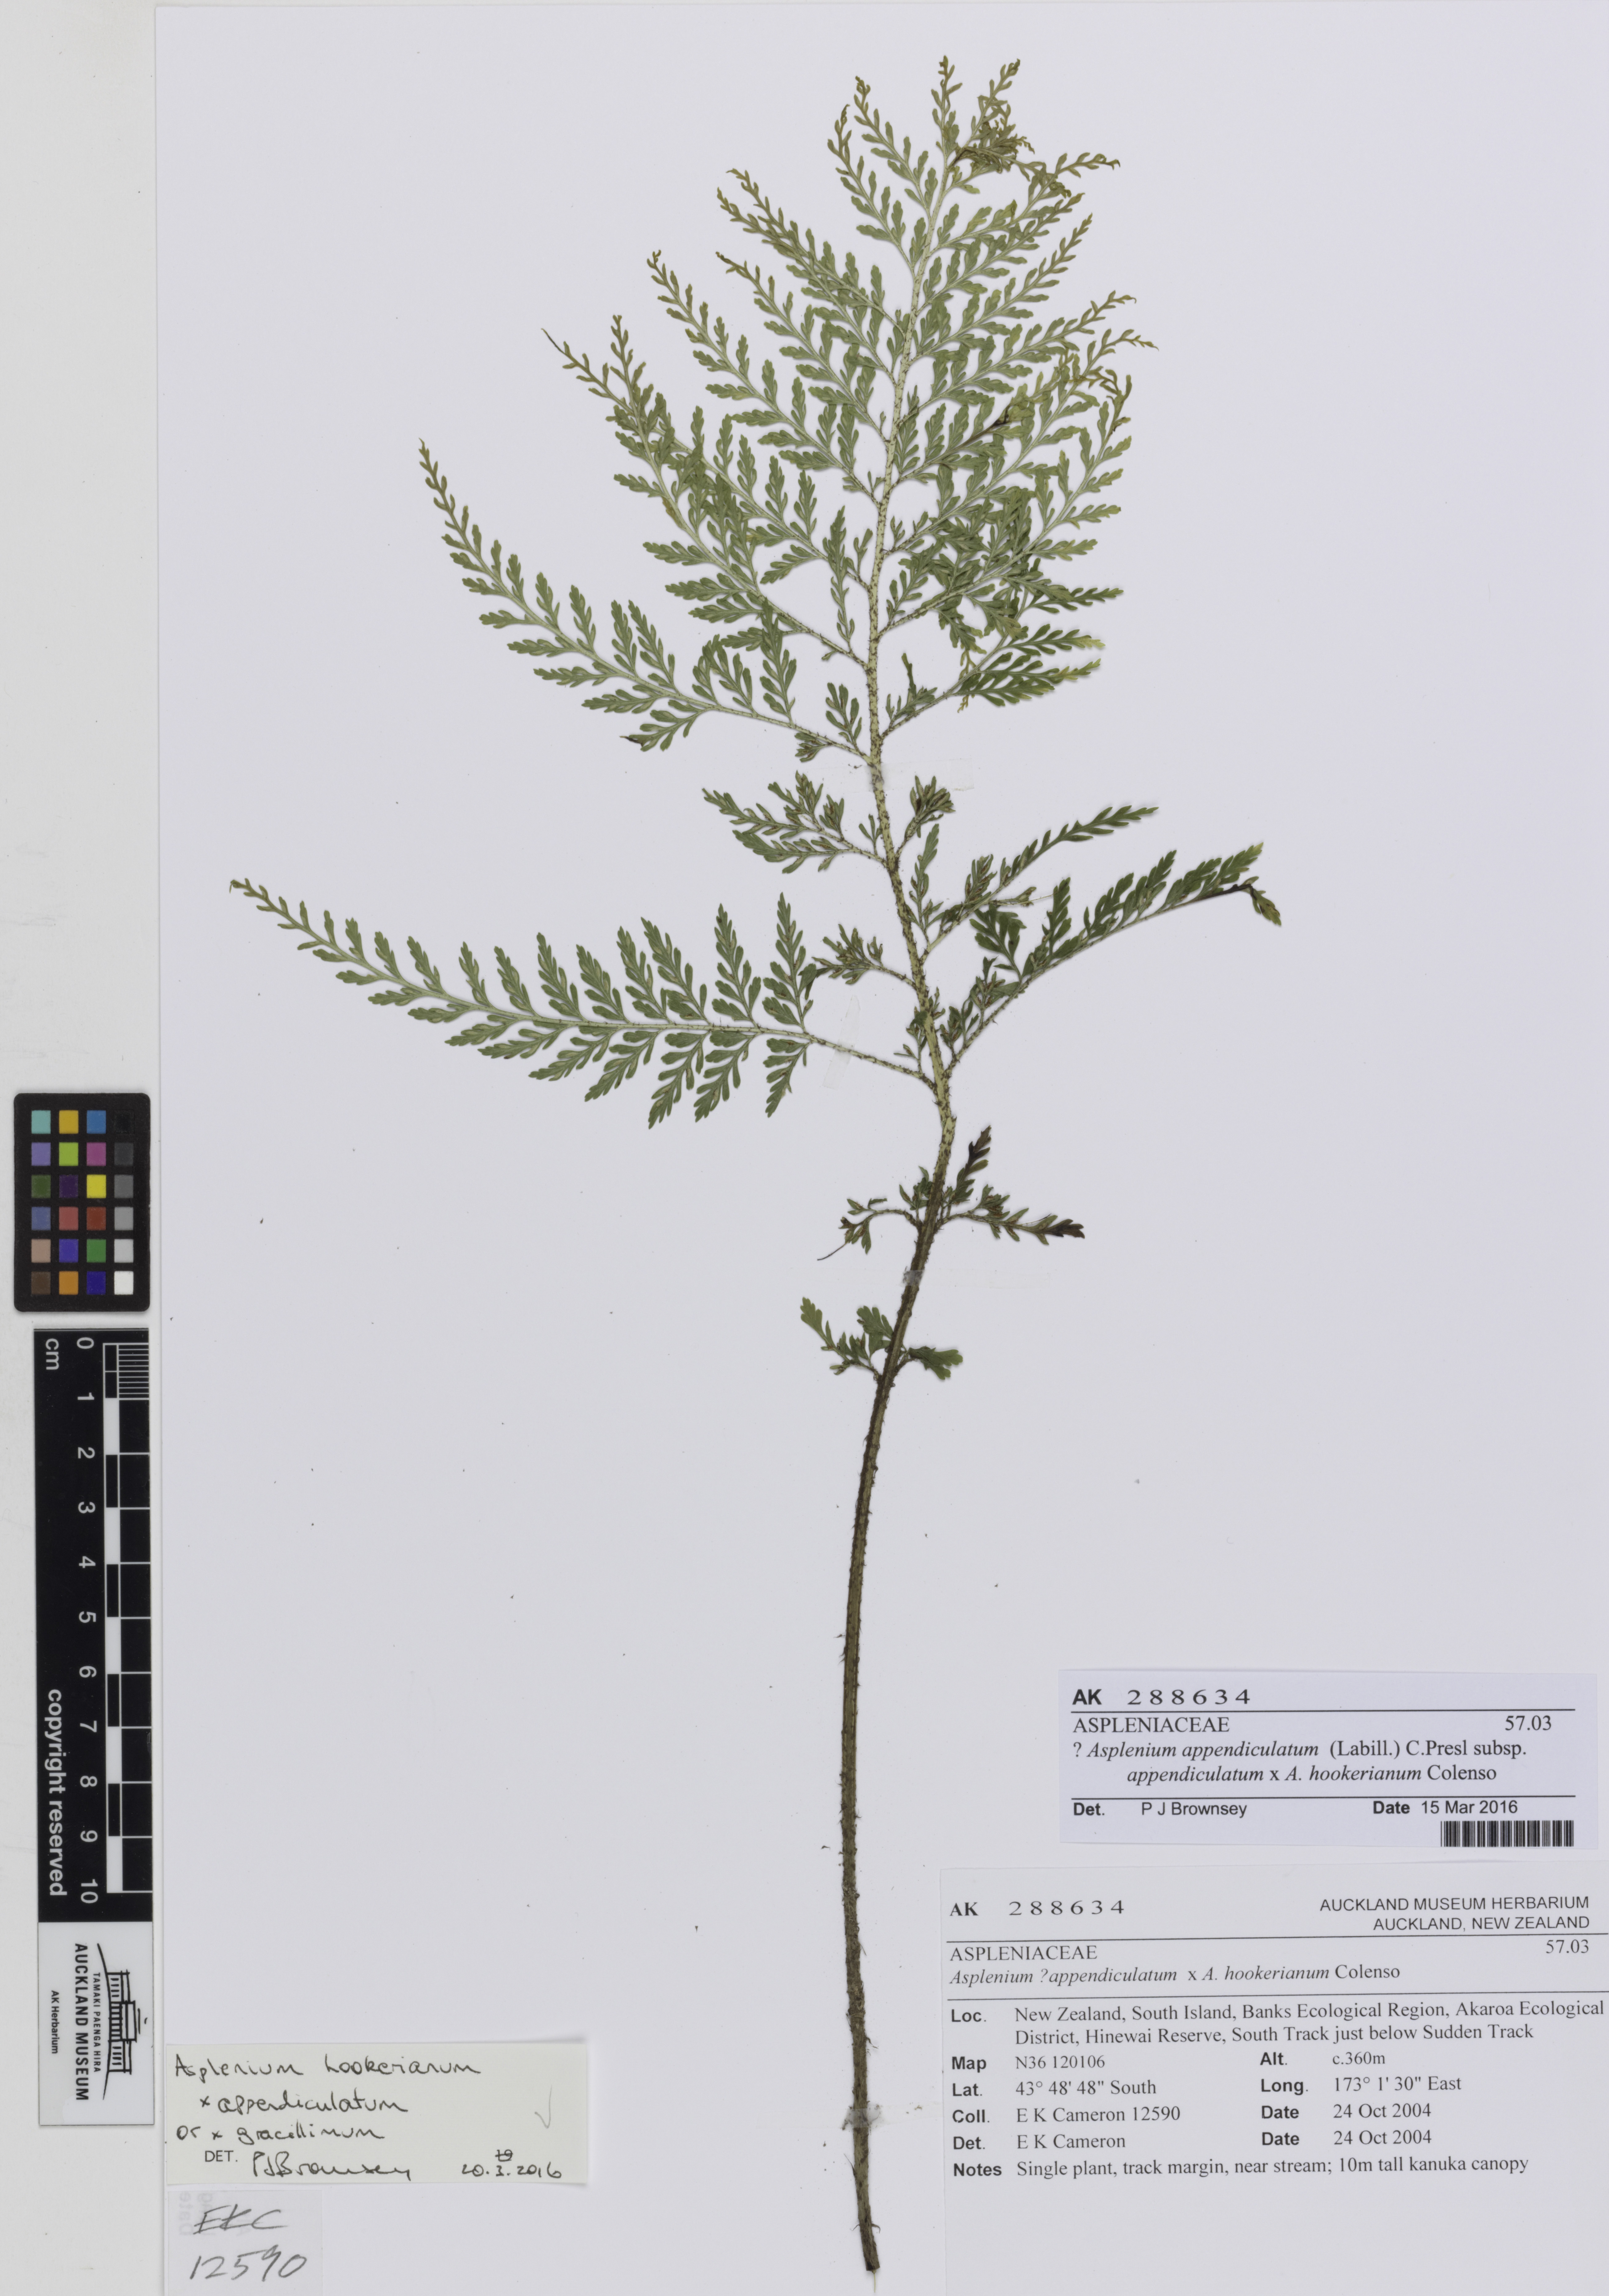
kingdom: Plantae
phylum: Tracheophyta
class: Polypodiopsida
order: Polypodiales
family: Aspleniaceae
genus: Asplenium
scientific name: Asplenium
